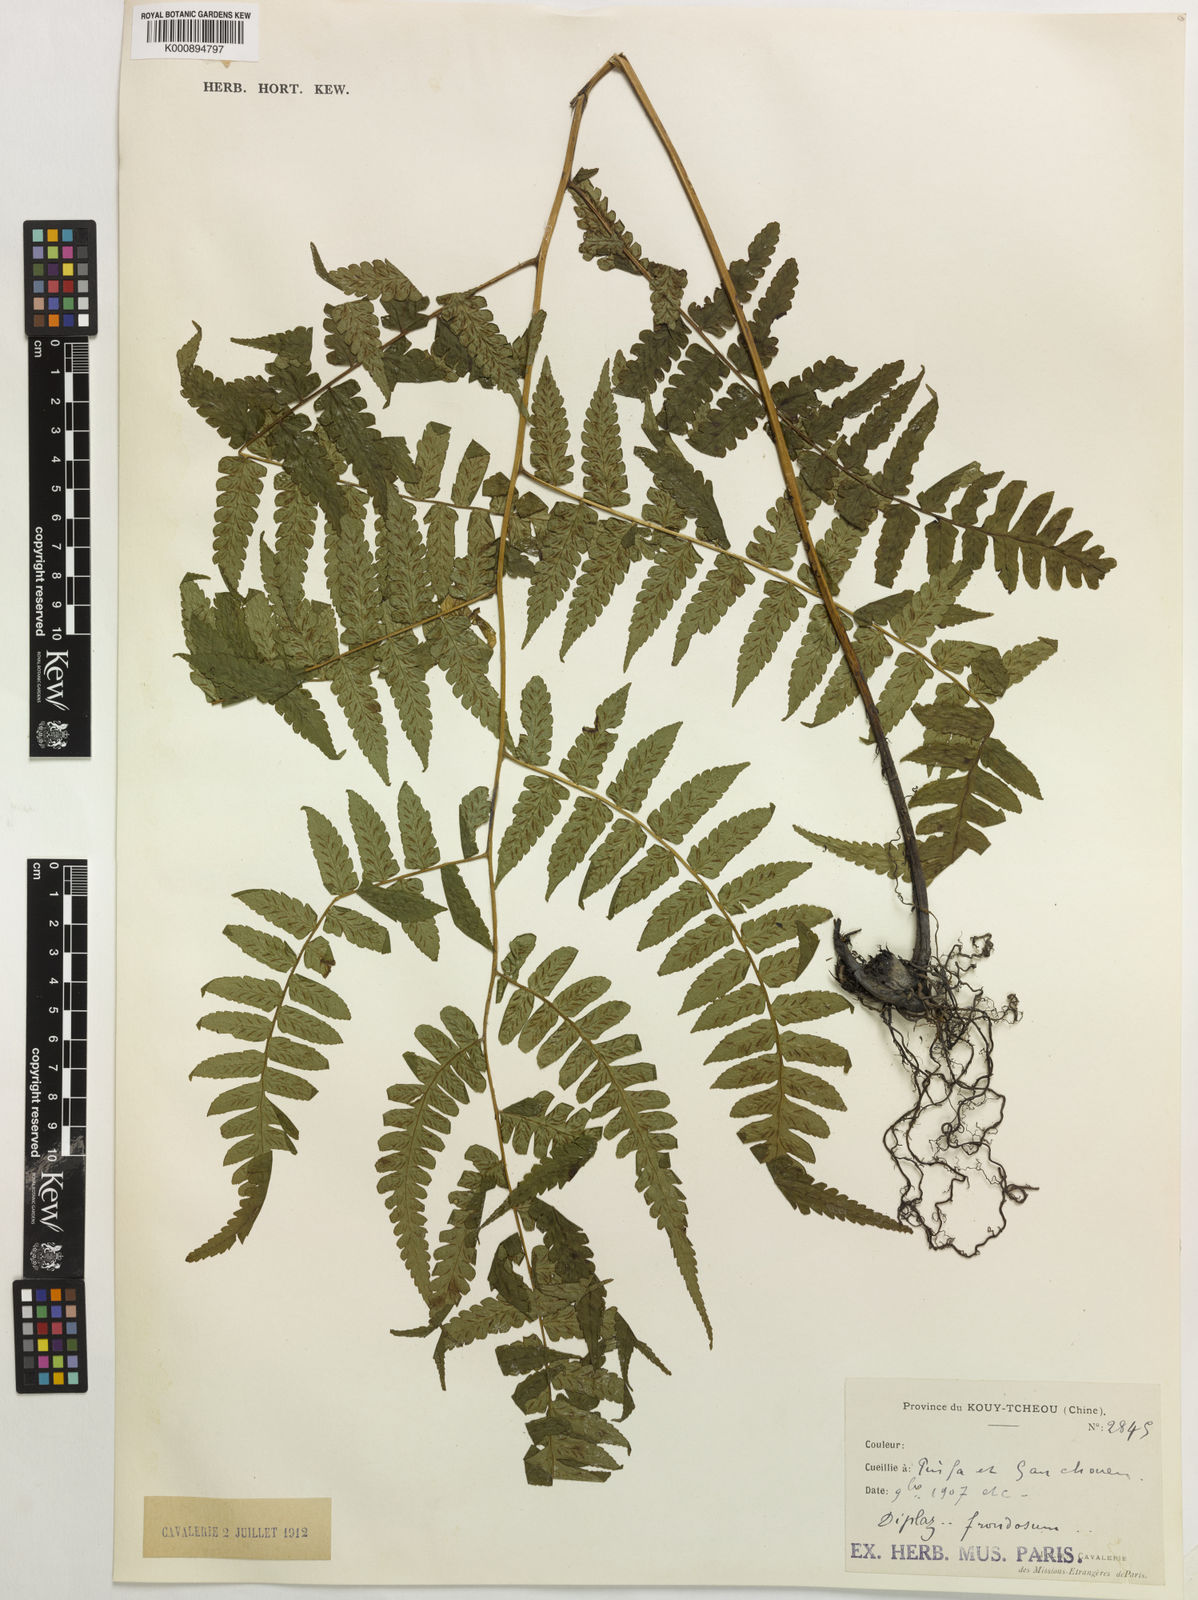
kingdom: Plantae
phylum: Tracheophyta
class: Polypodiopsida
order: Polypodiales
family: Athyriaceae
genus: Diplazium
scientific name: Diplazium maximum
